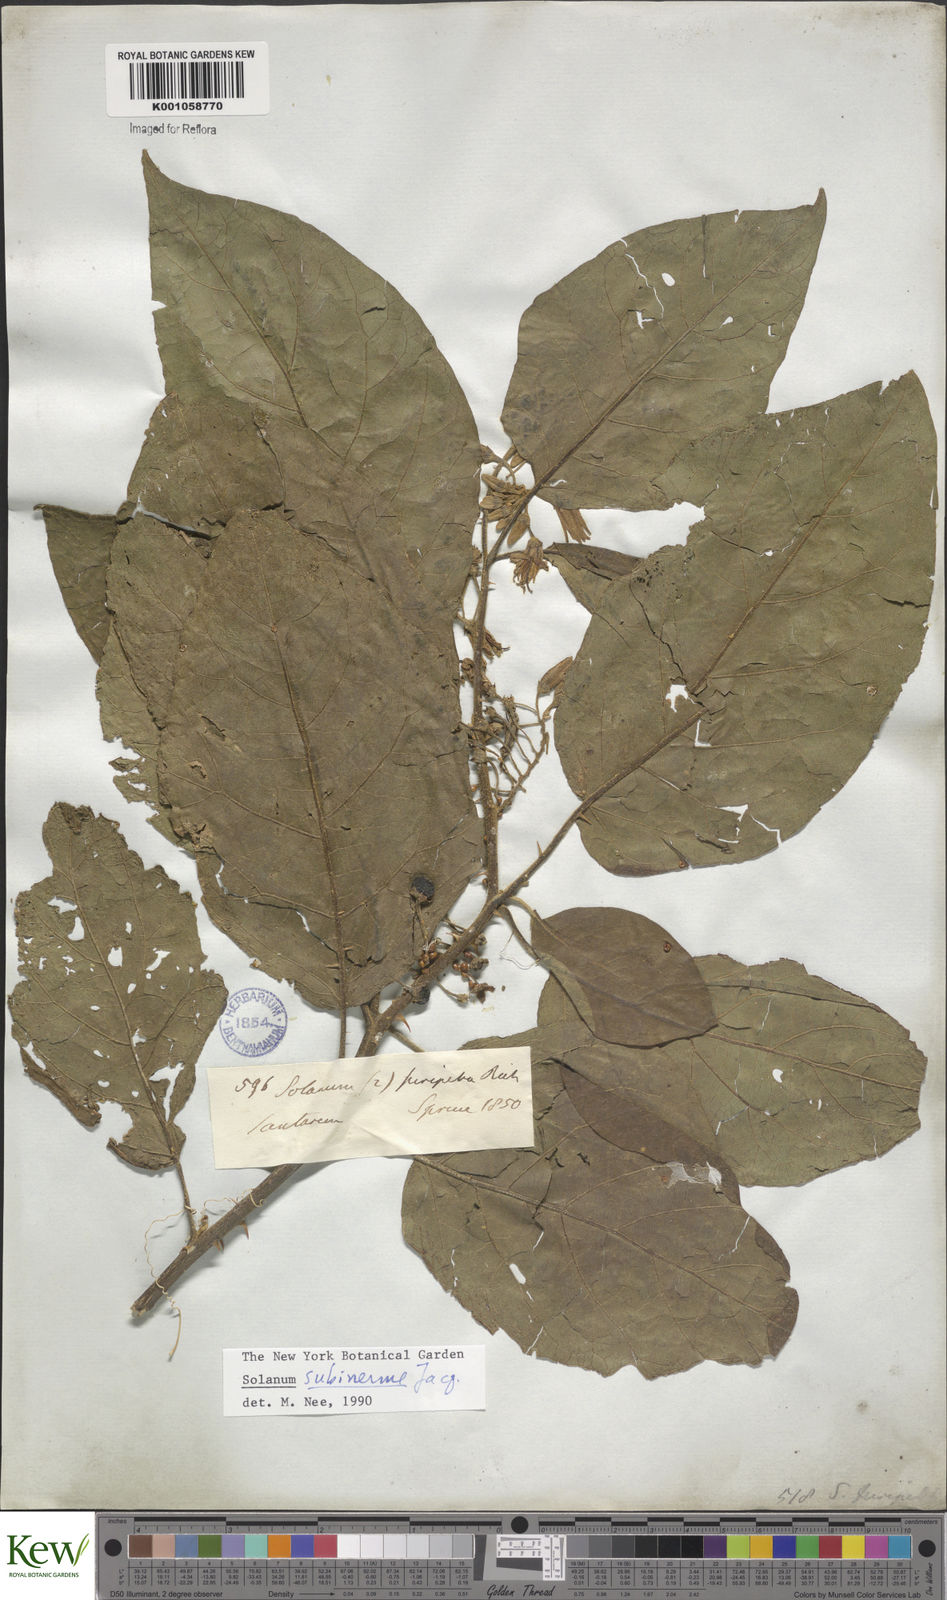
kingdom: Plantae
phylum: Tracheophyta
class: Magnoliopsida
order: Solanales
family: Solanaceae
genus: Solanum
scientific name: Solanum subinerme
